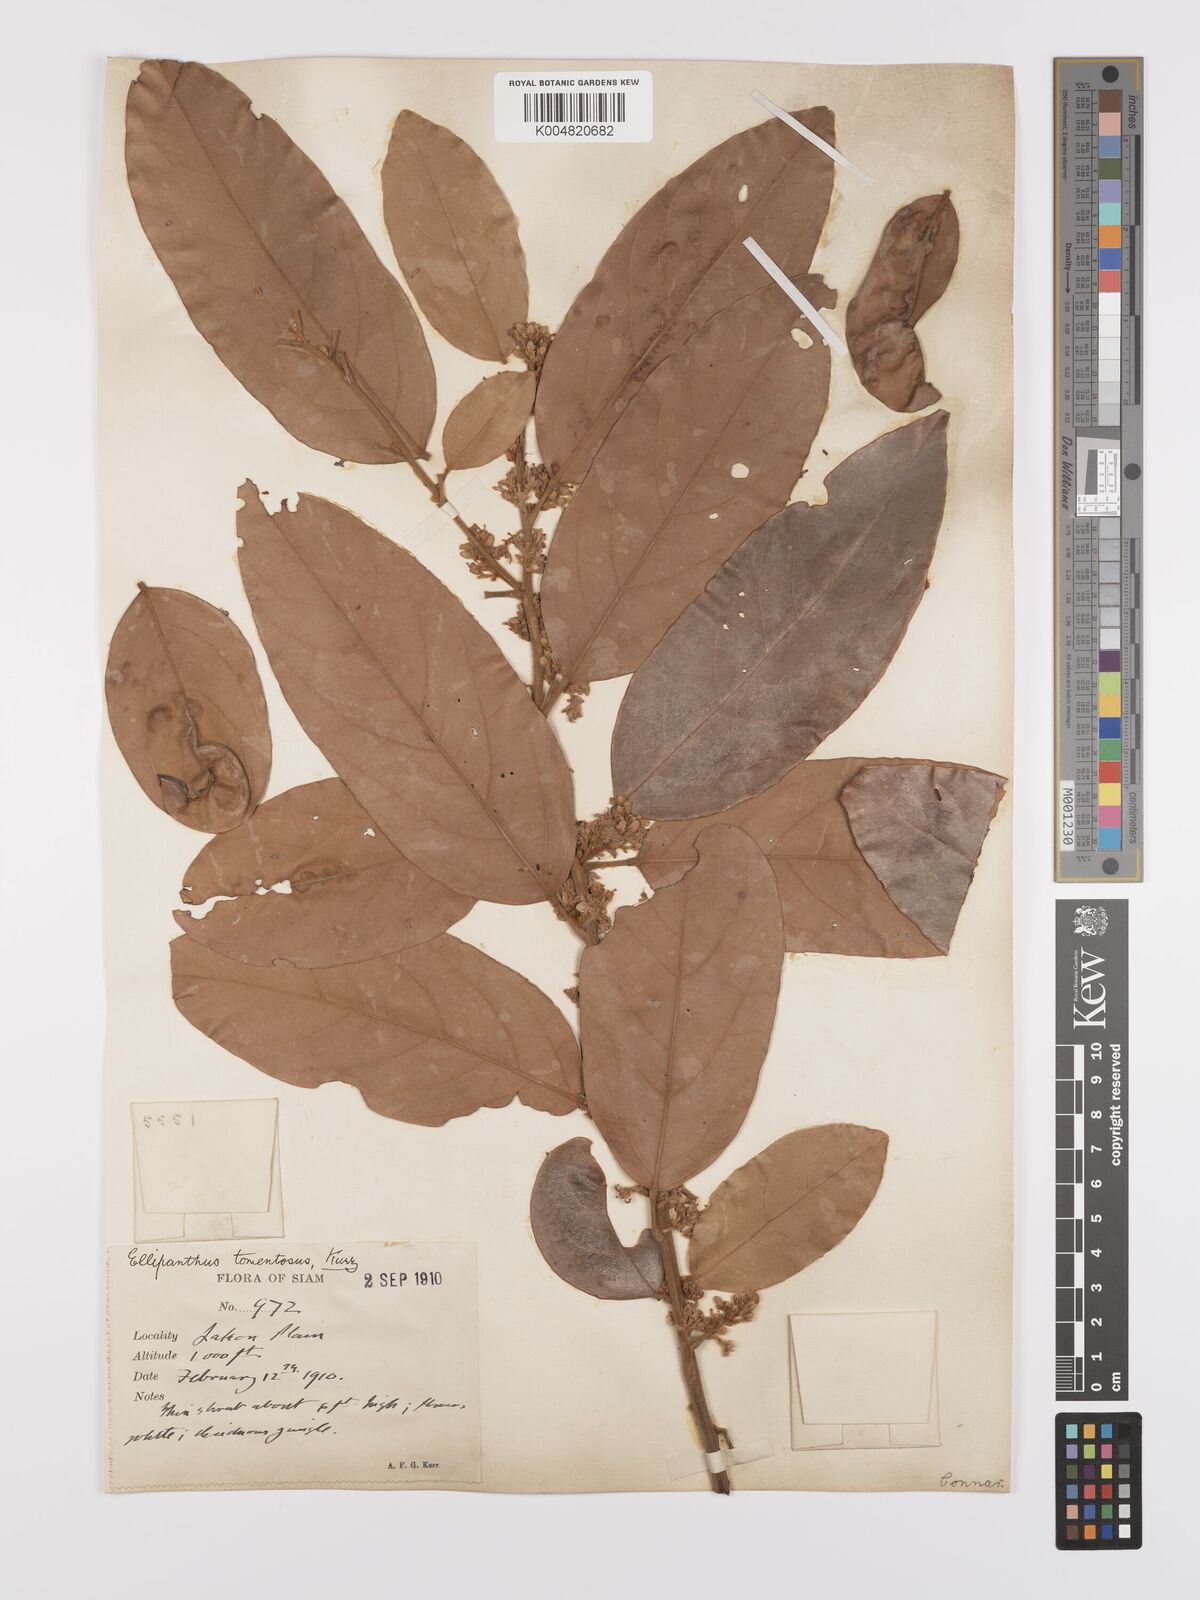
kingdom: Plantae
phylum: Tracheophyta
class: Magnoliopsida
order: Oxalidales
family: Connaraceae
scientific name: Connaraceae
